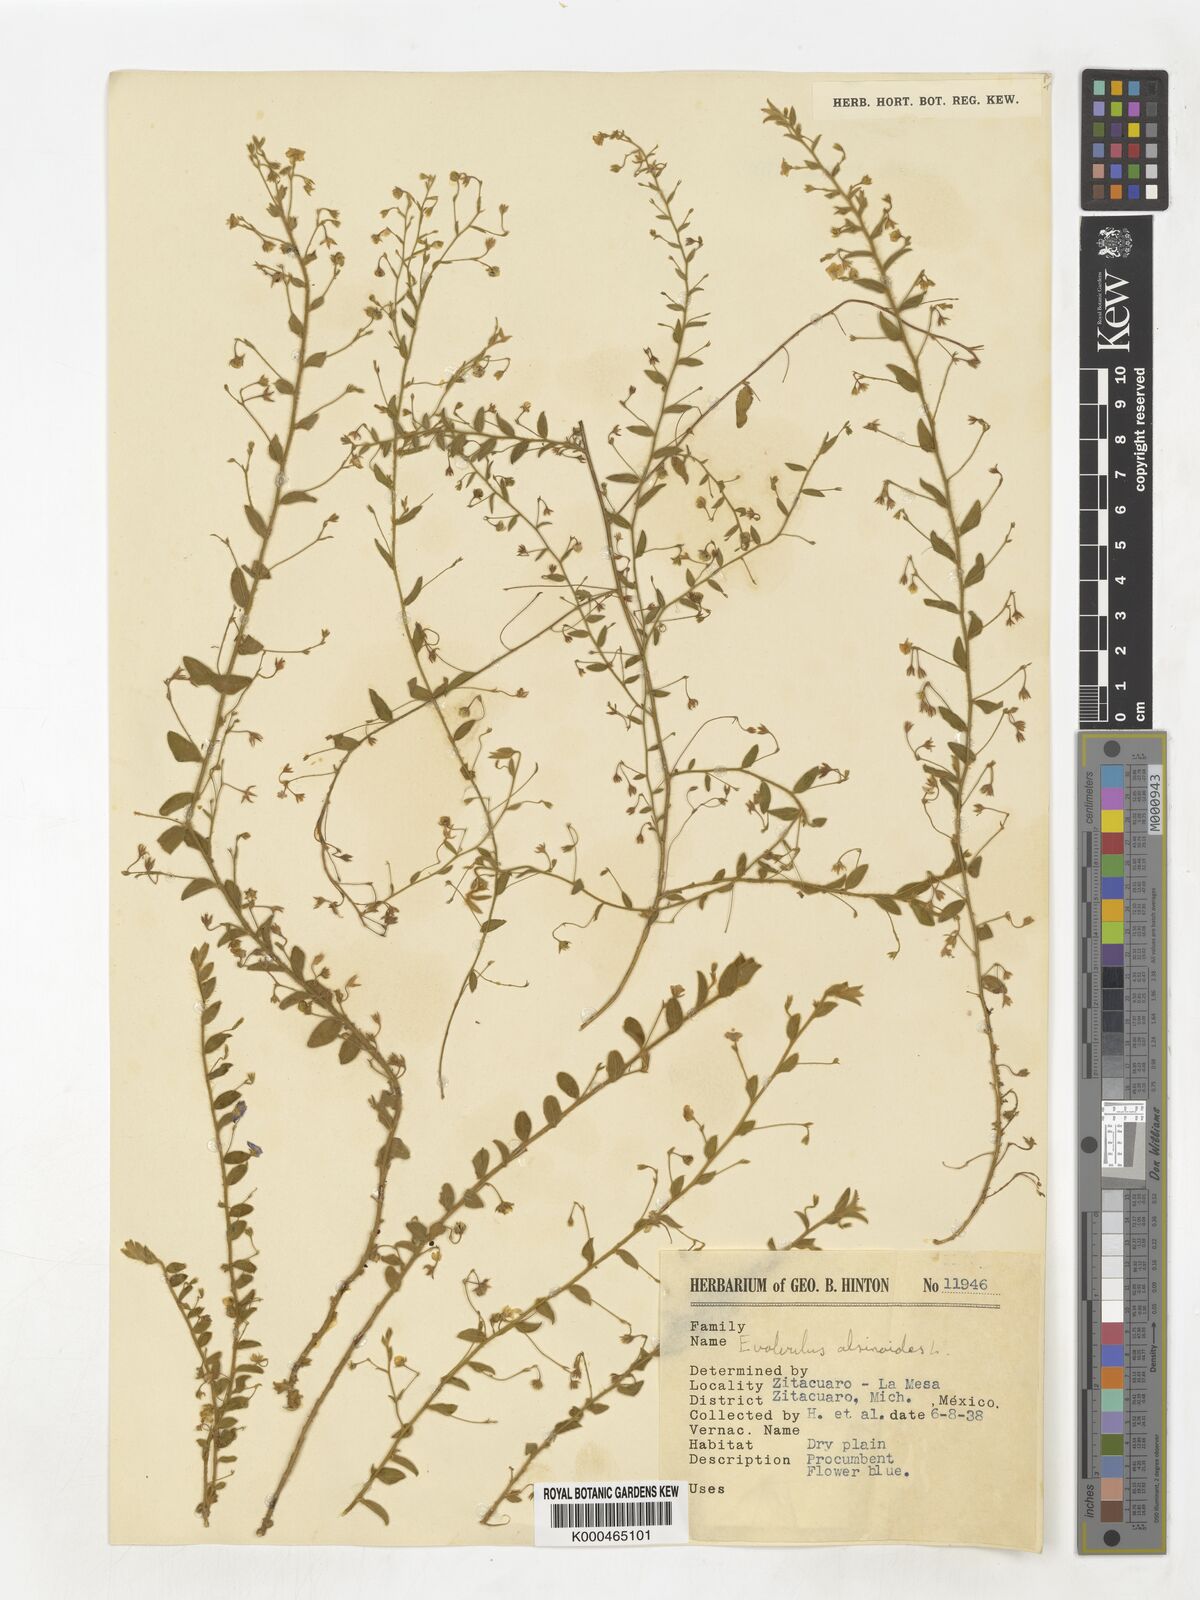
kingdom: Plantae
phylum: Tracheophyta
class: Magnoliopsida
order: Solanales
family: Convolvulaceae
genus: Evolvulus
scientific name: Evolvulus alsinoides
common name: Slender dwarf morning-glory
